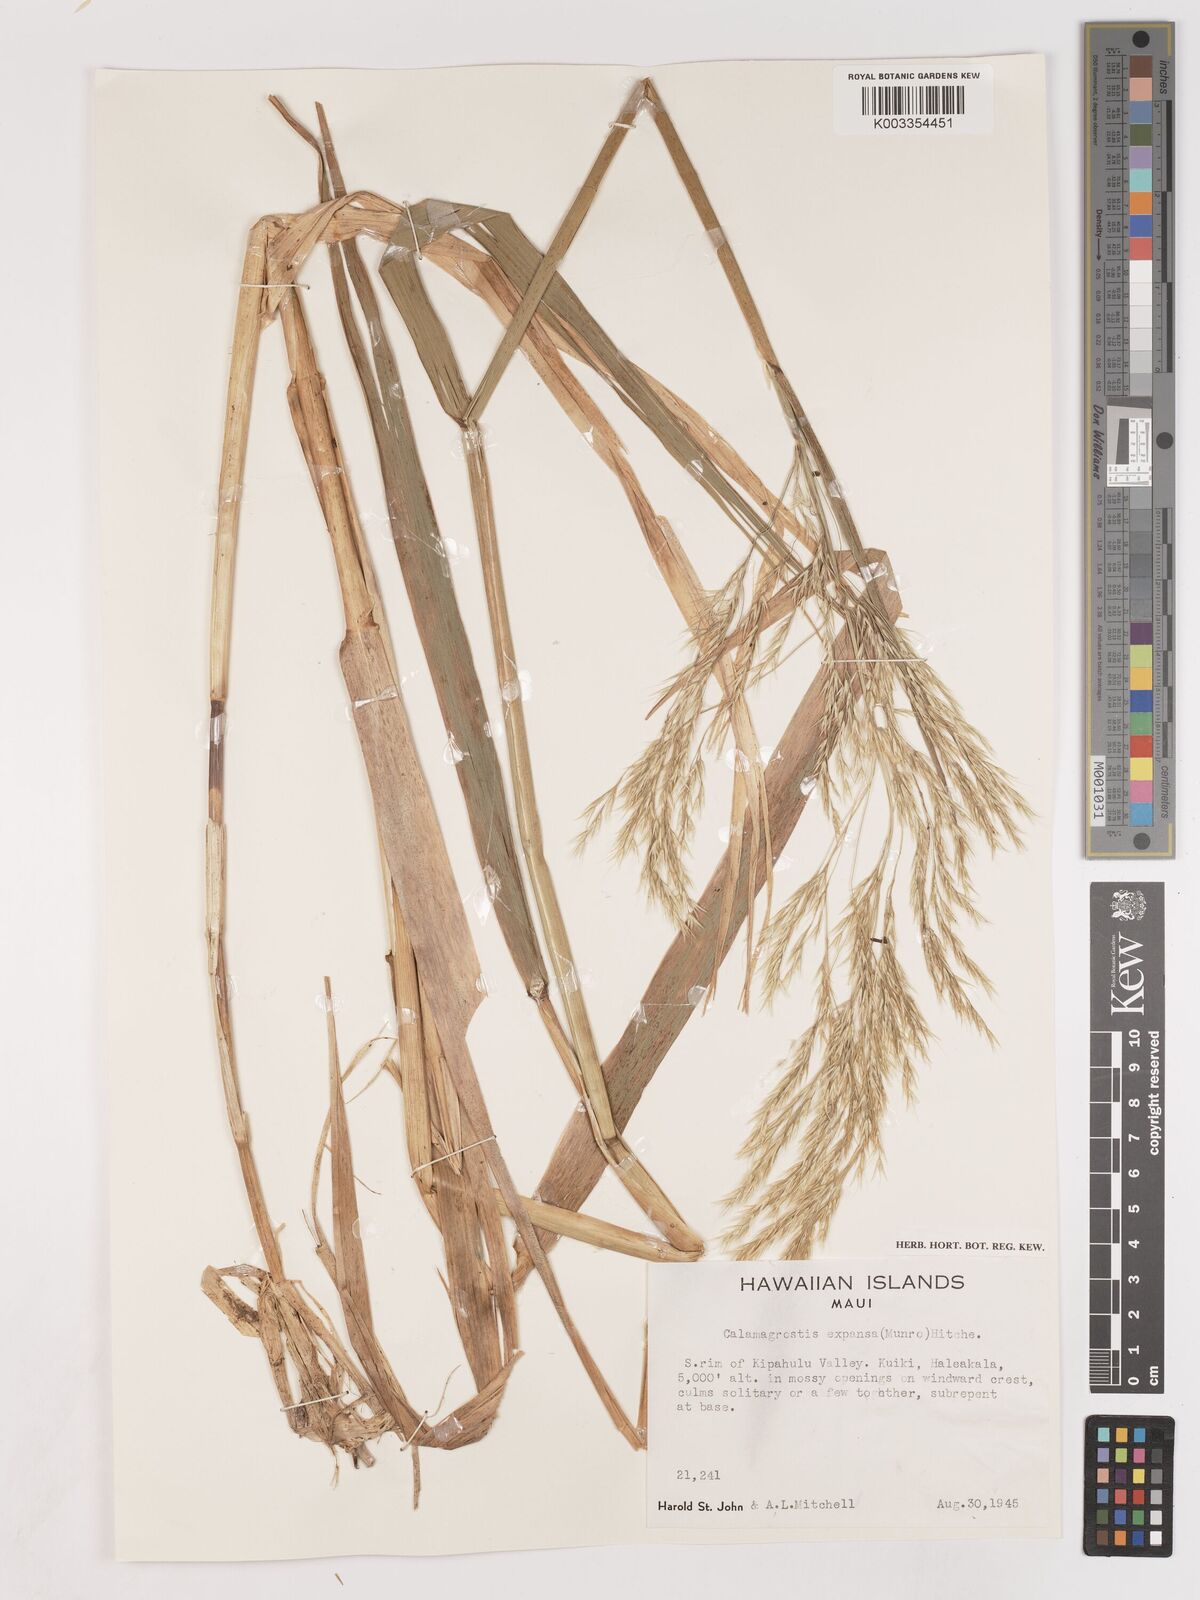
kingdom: Plantae
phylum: Tracheophyta
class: Liliopsida
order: Poales
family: Poaceae
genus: Calamagrostis
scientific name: Calamagrostis expansa
